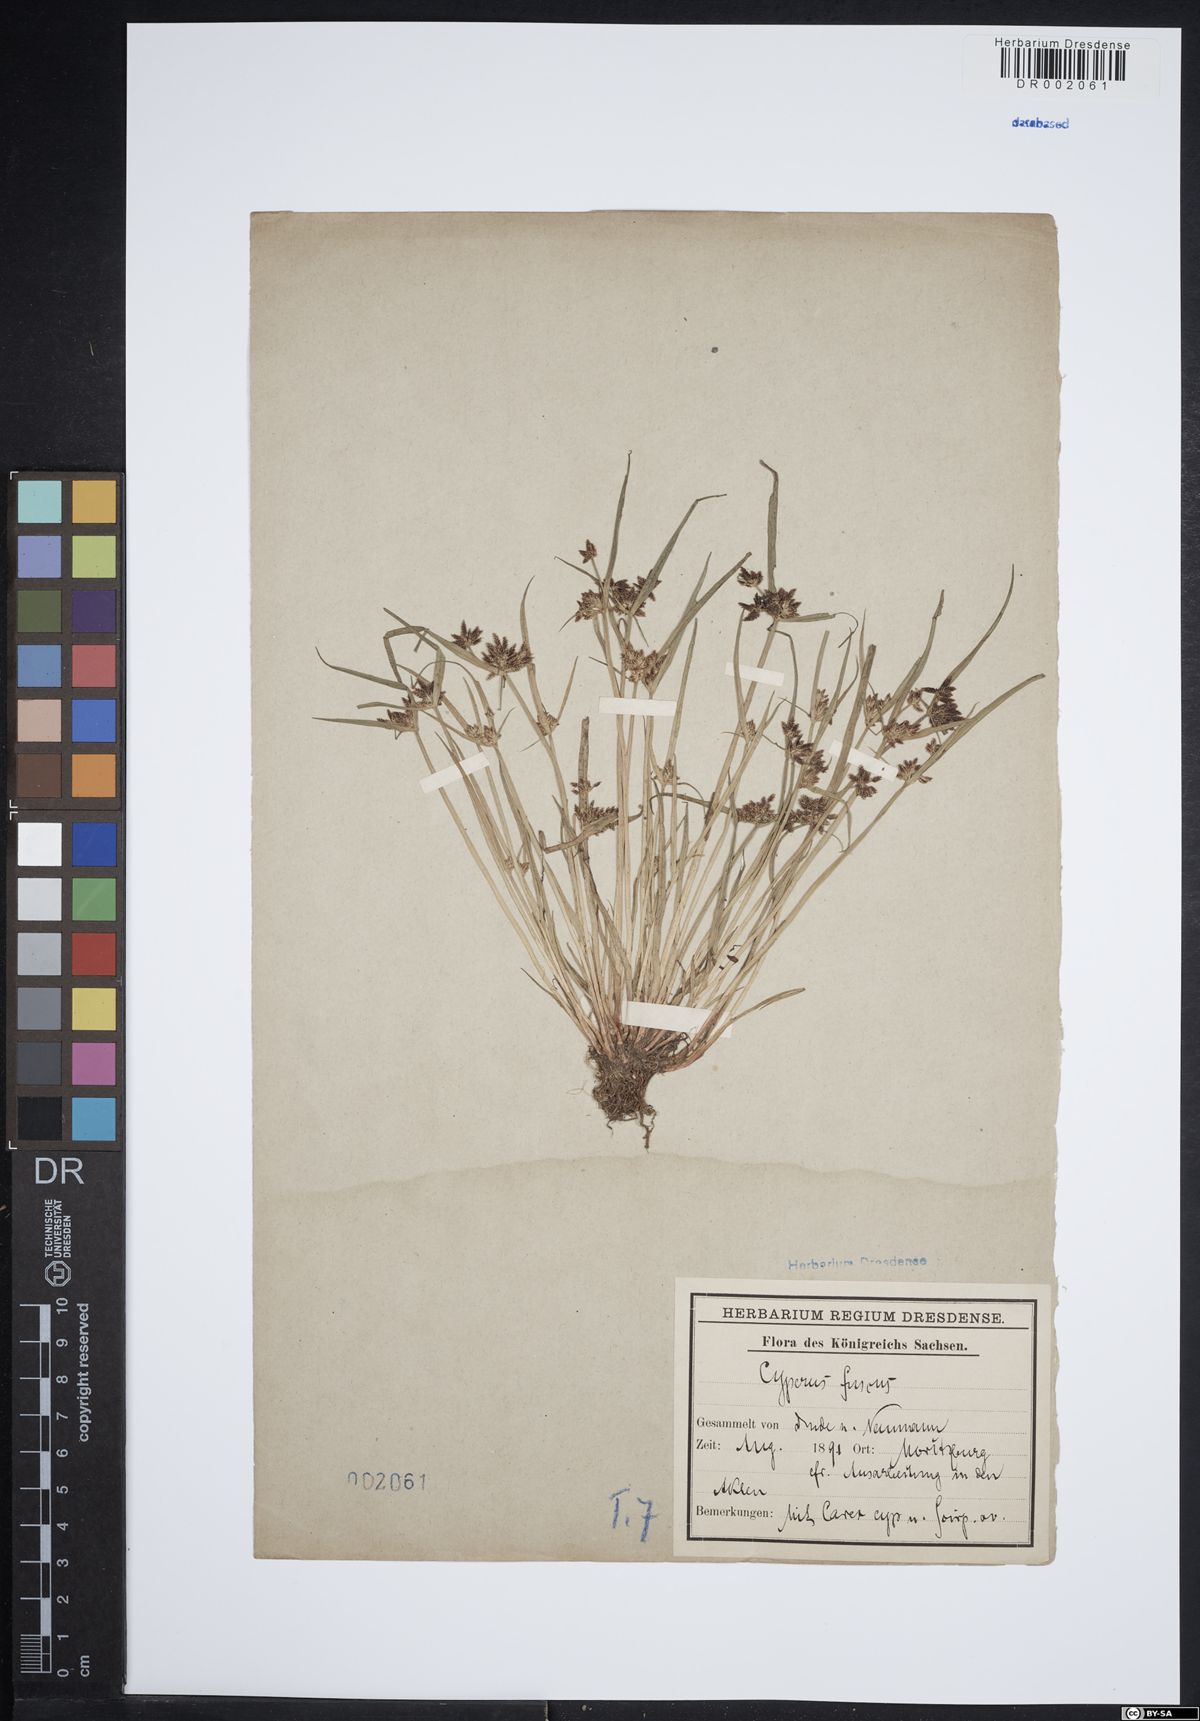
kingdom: Plantae
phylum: Tracheophyta
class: Liliopsida
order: Poales
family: Cyperaceae
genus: Cyperus
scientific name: Cyperus fuscus
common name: Brown galingale
